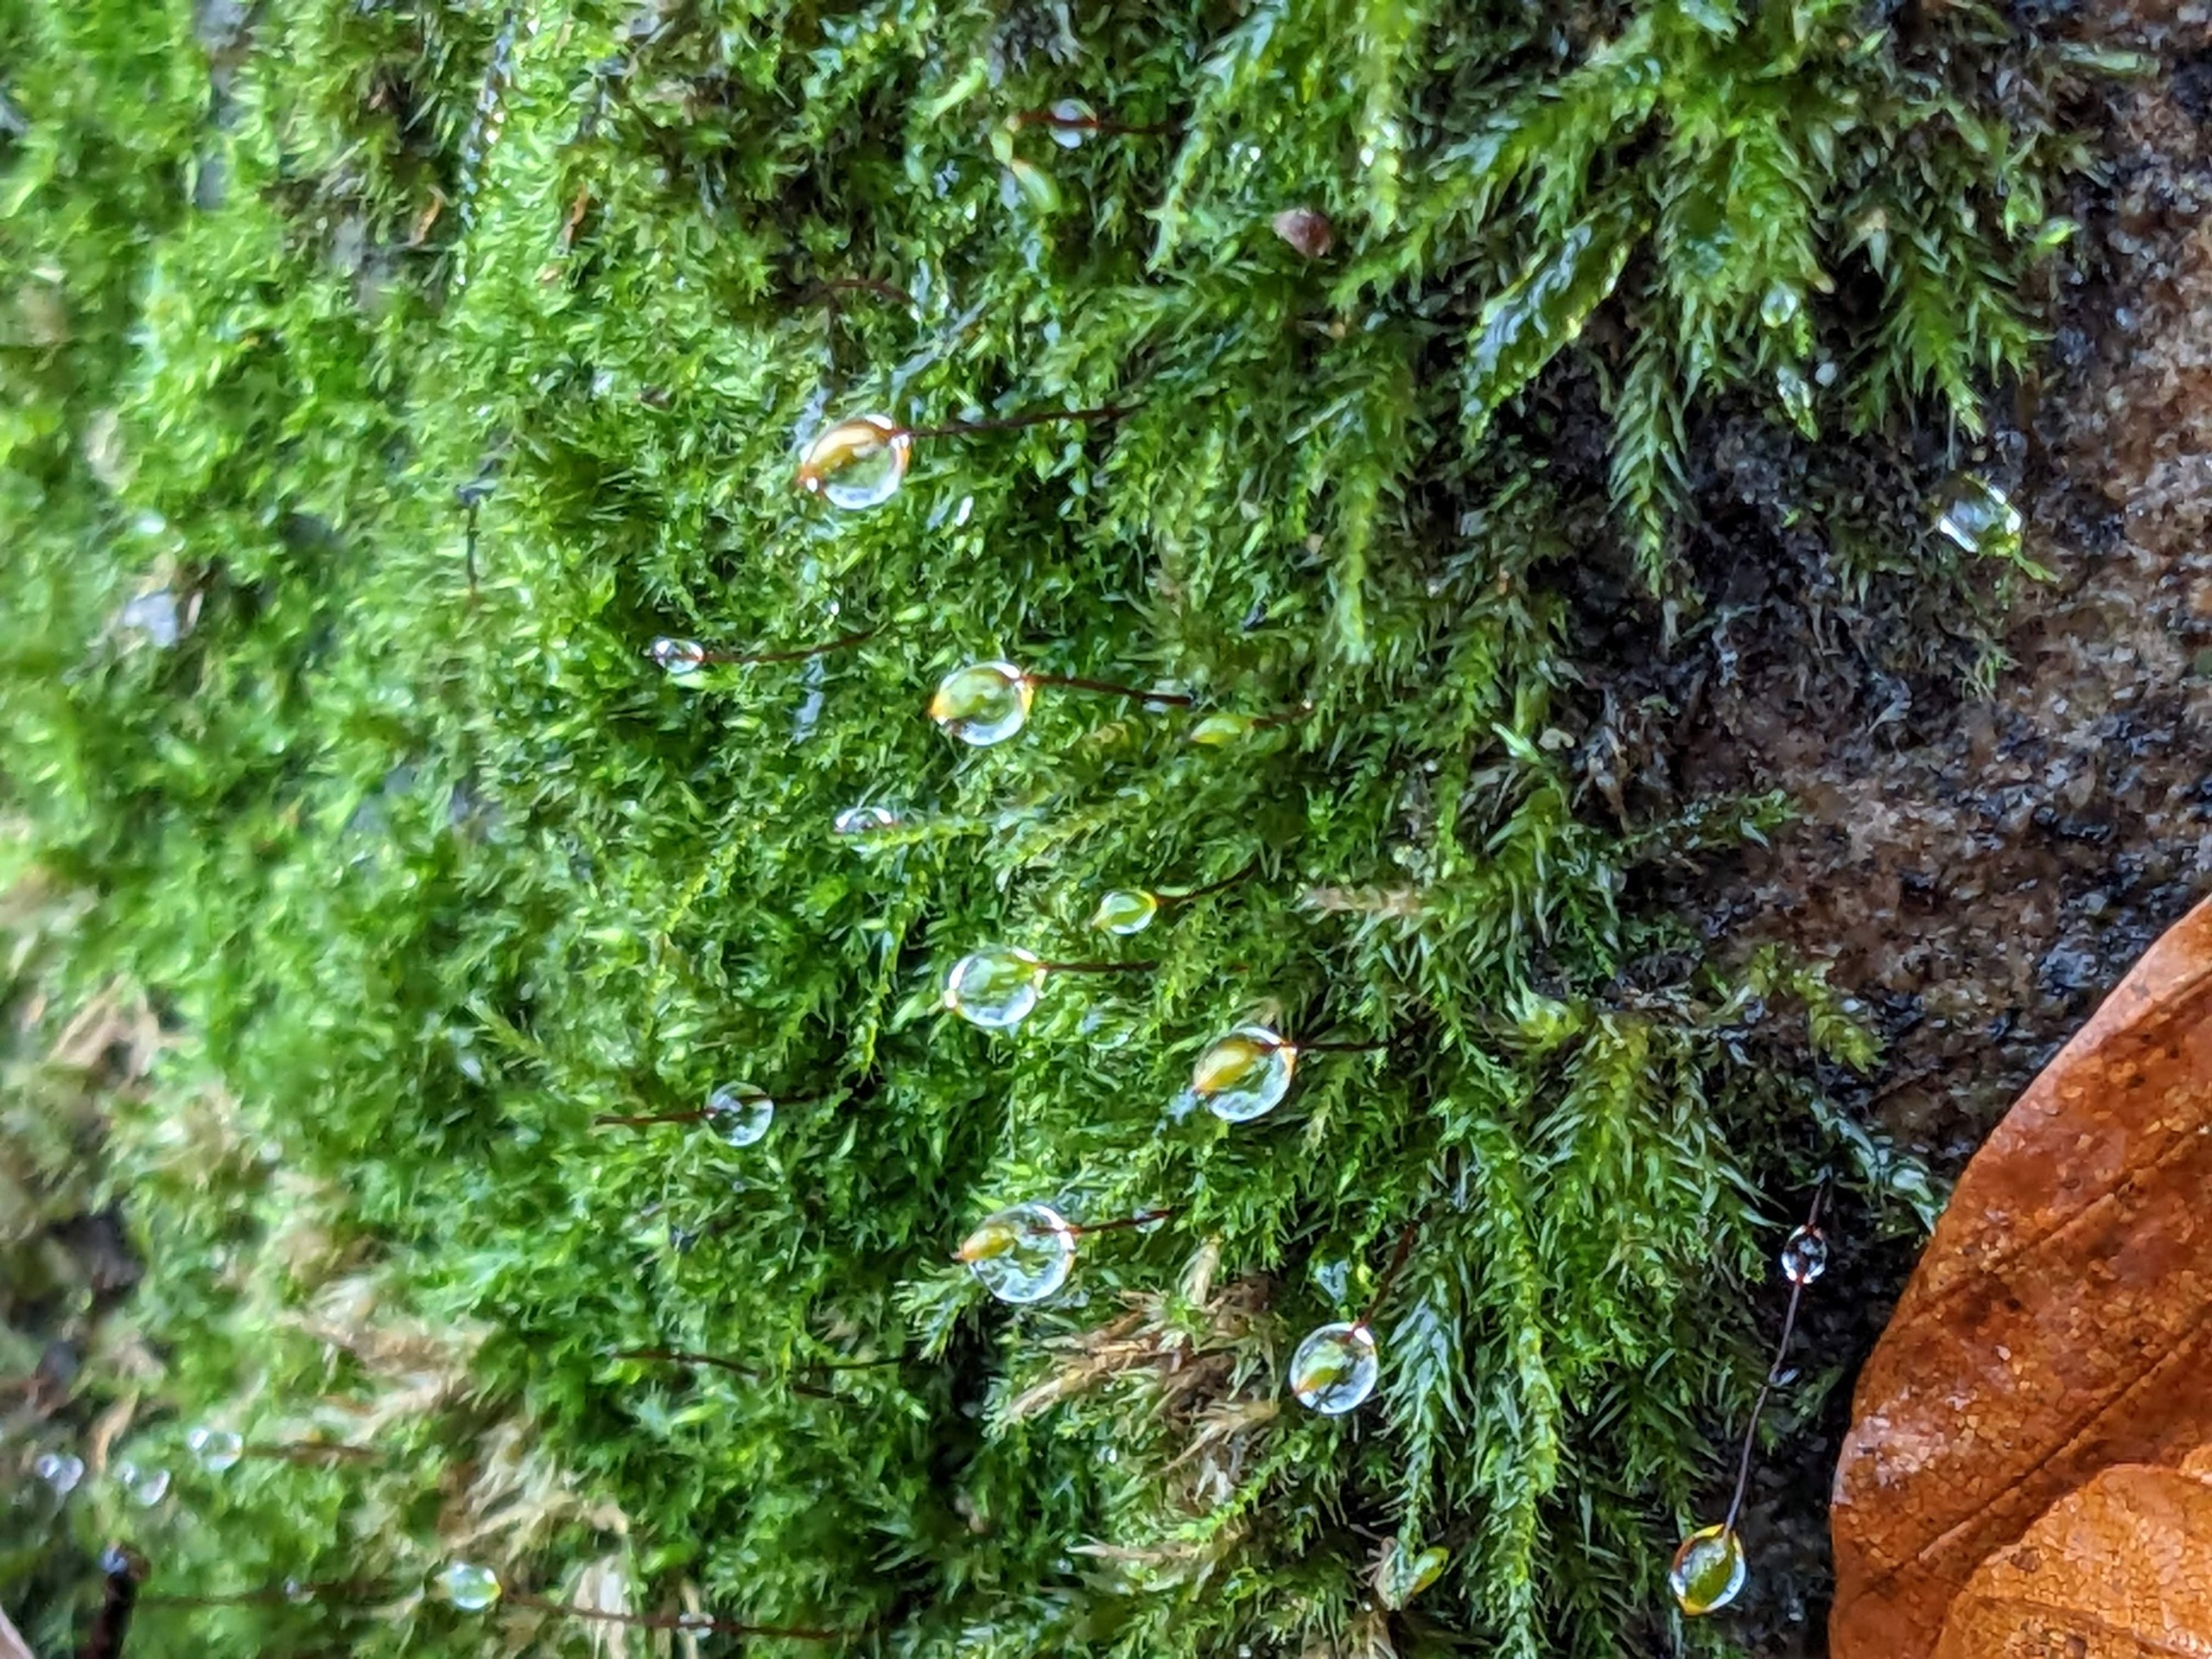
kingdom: Plantae
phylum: Bryophyta
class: Bryopsida
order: Hypnales
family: Brachytheciaceae
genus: Sciuro-hypnum
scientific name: Sciuro-hypnum populeum
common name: Park-kortkapsel
